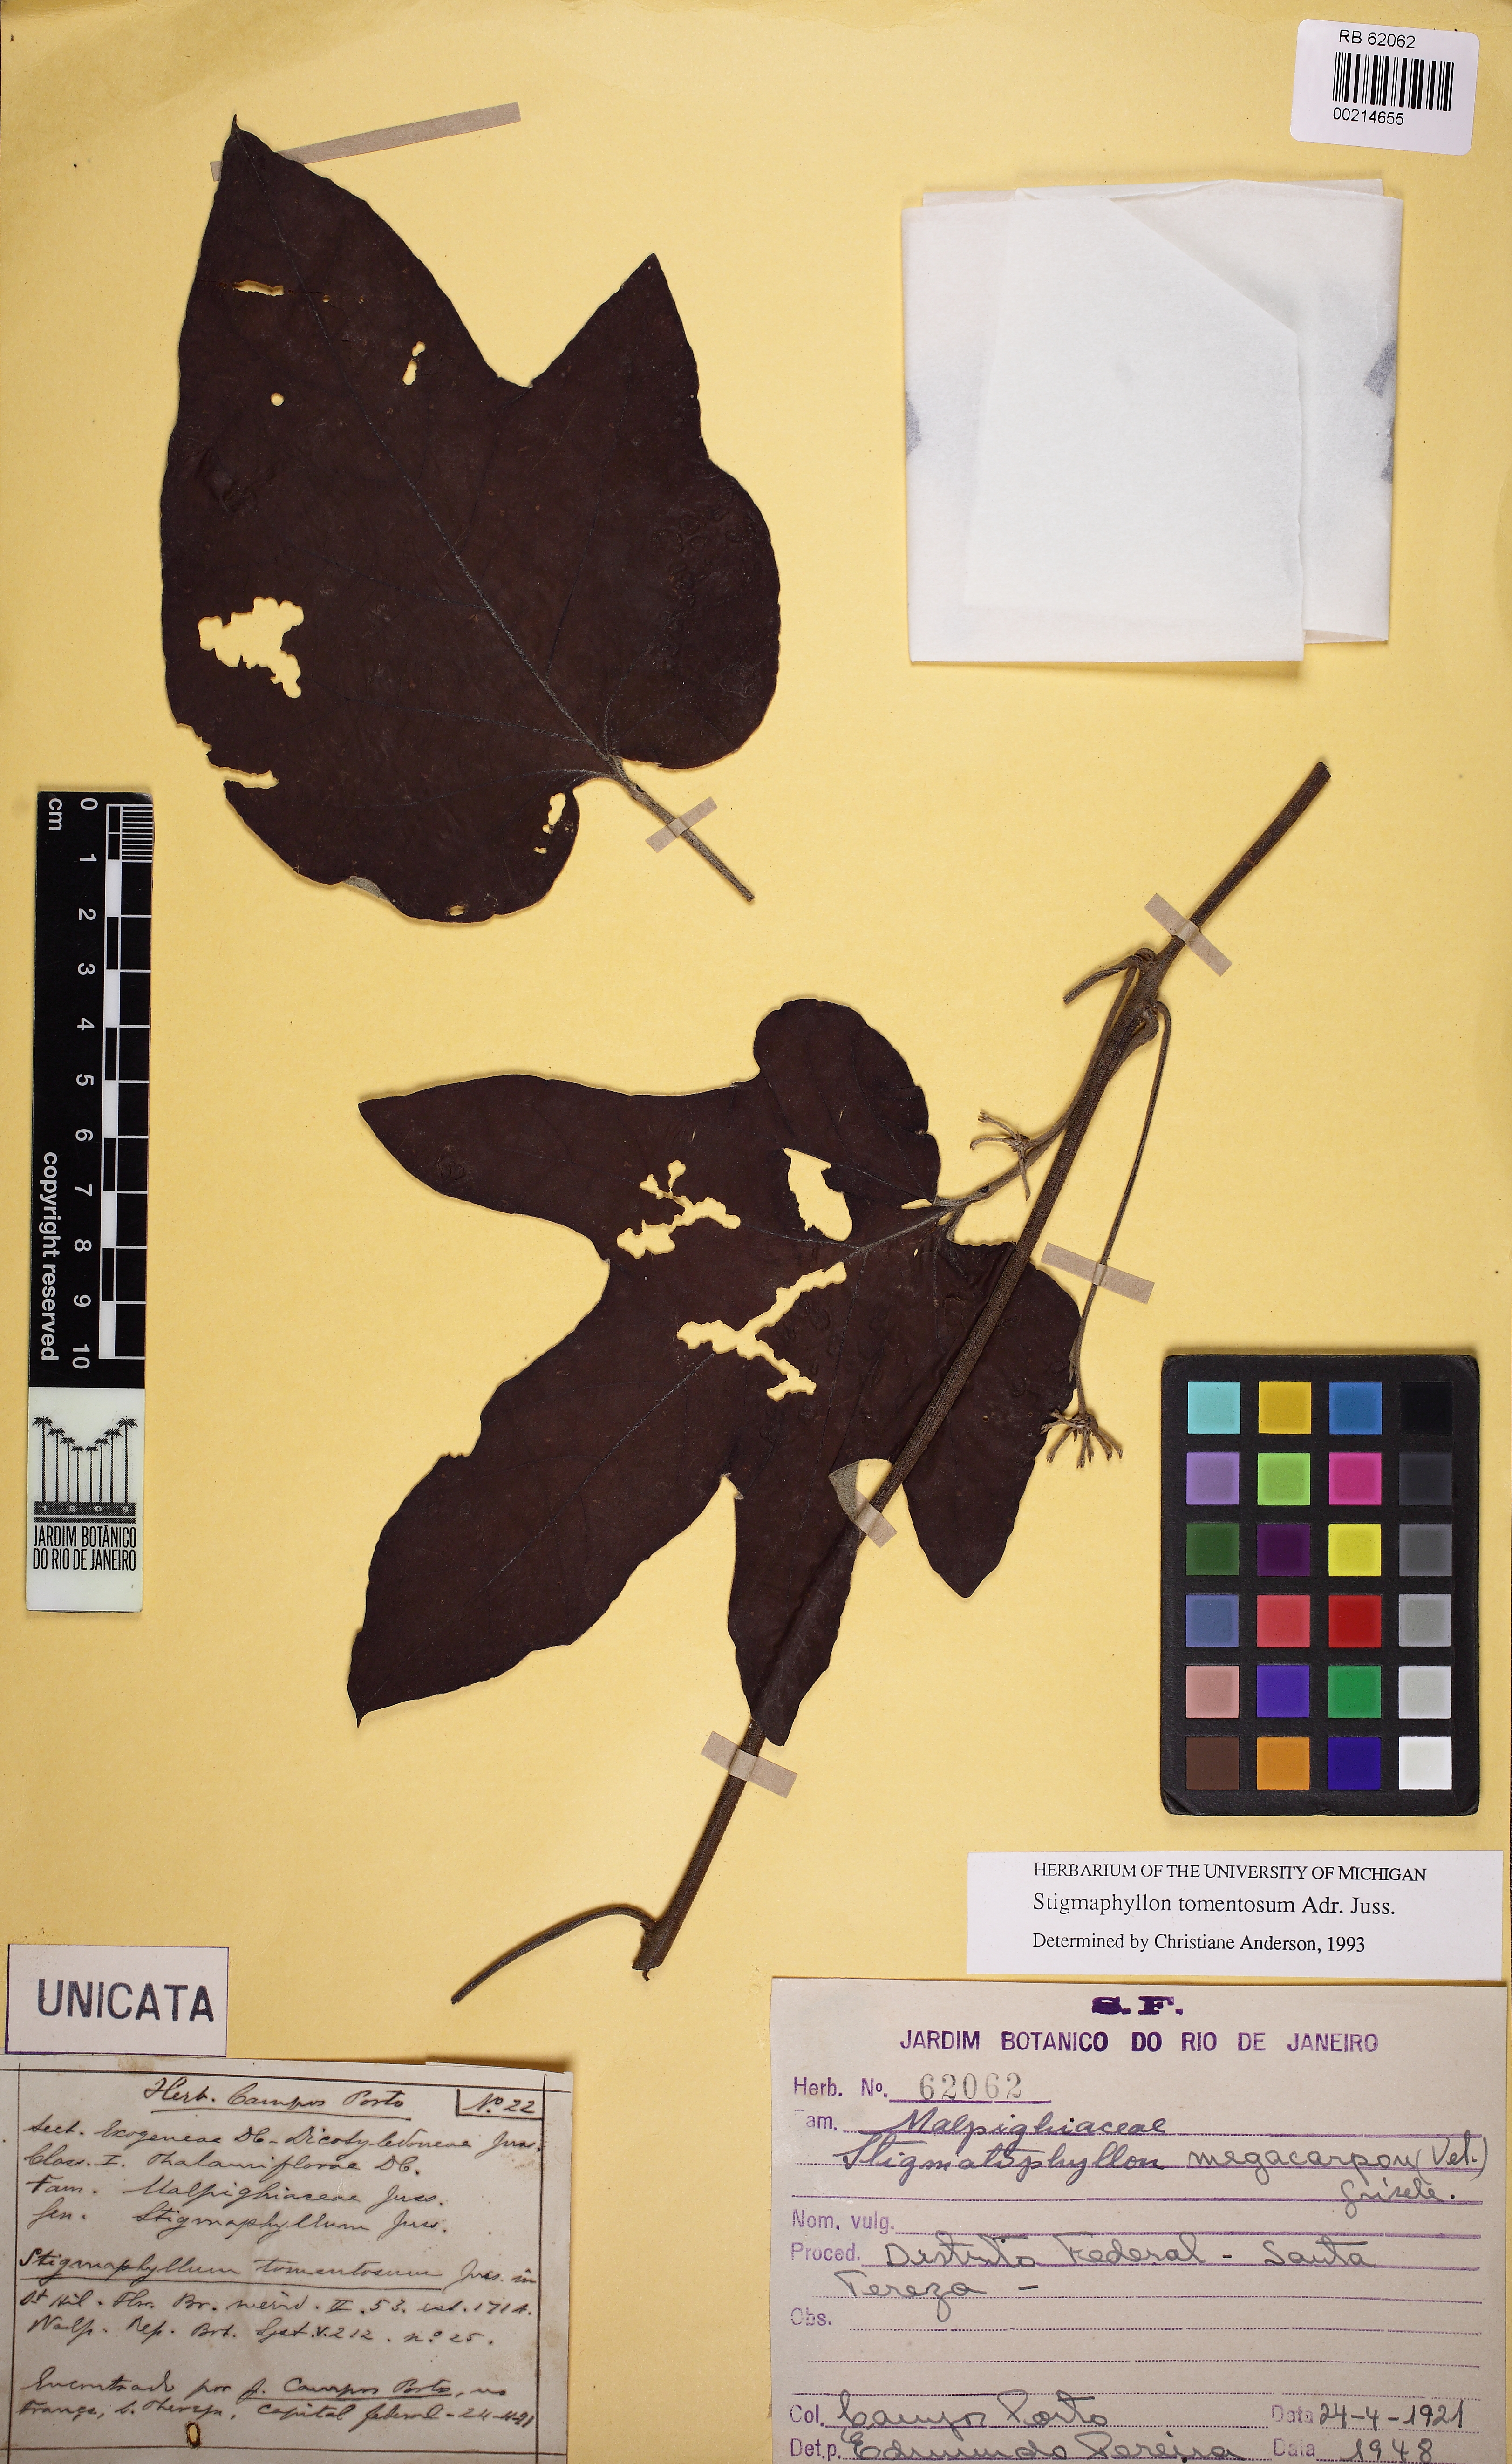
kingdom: Plantae
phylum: Tracheophyta
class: Magnoliopsida
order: Malpighiales
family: Malpighiaceae
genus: Stigmaphyllon
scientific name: Stigmaphyllon tomentosum
